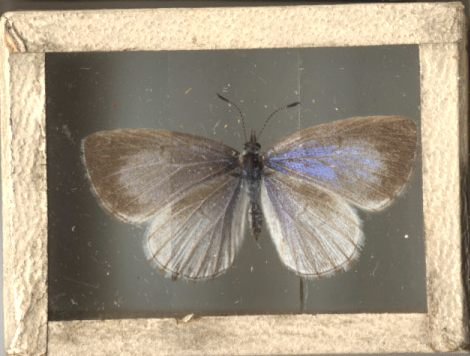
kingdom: Animalia
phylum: Arthropoda
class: Insecta
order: Lepidoptera
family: Lycaenidae
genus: Celastrina
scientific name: Celastrina lucia
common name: Northern Azure
